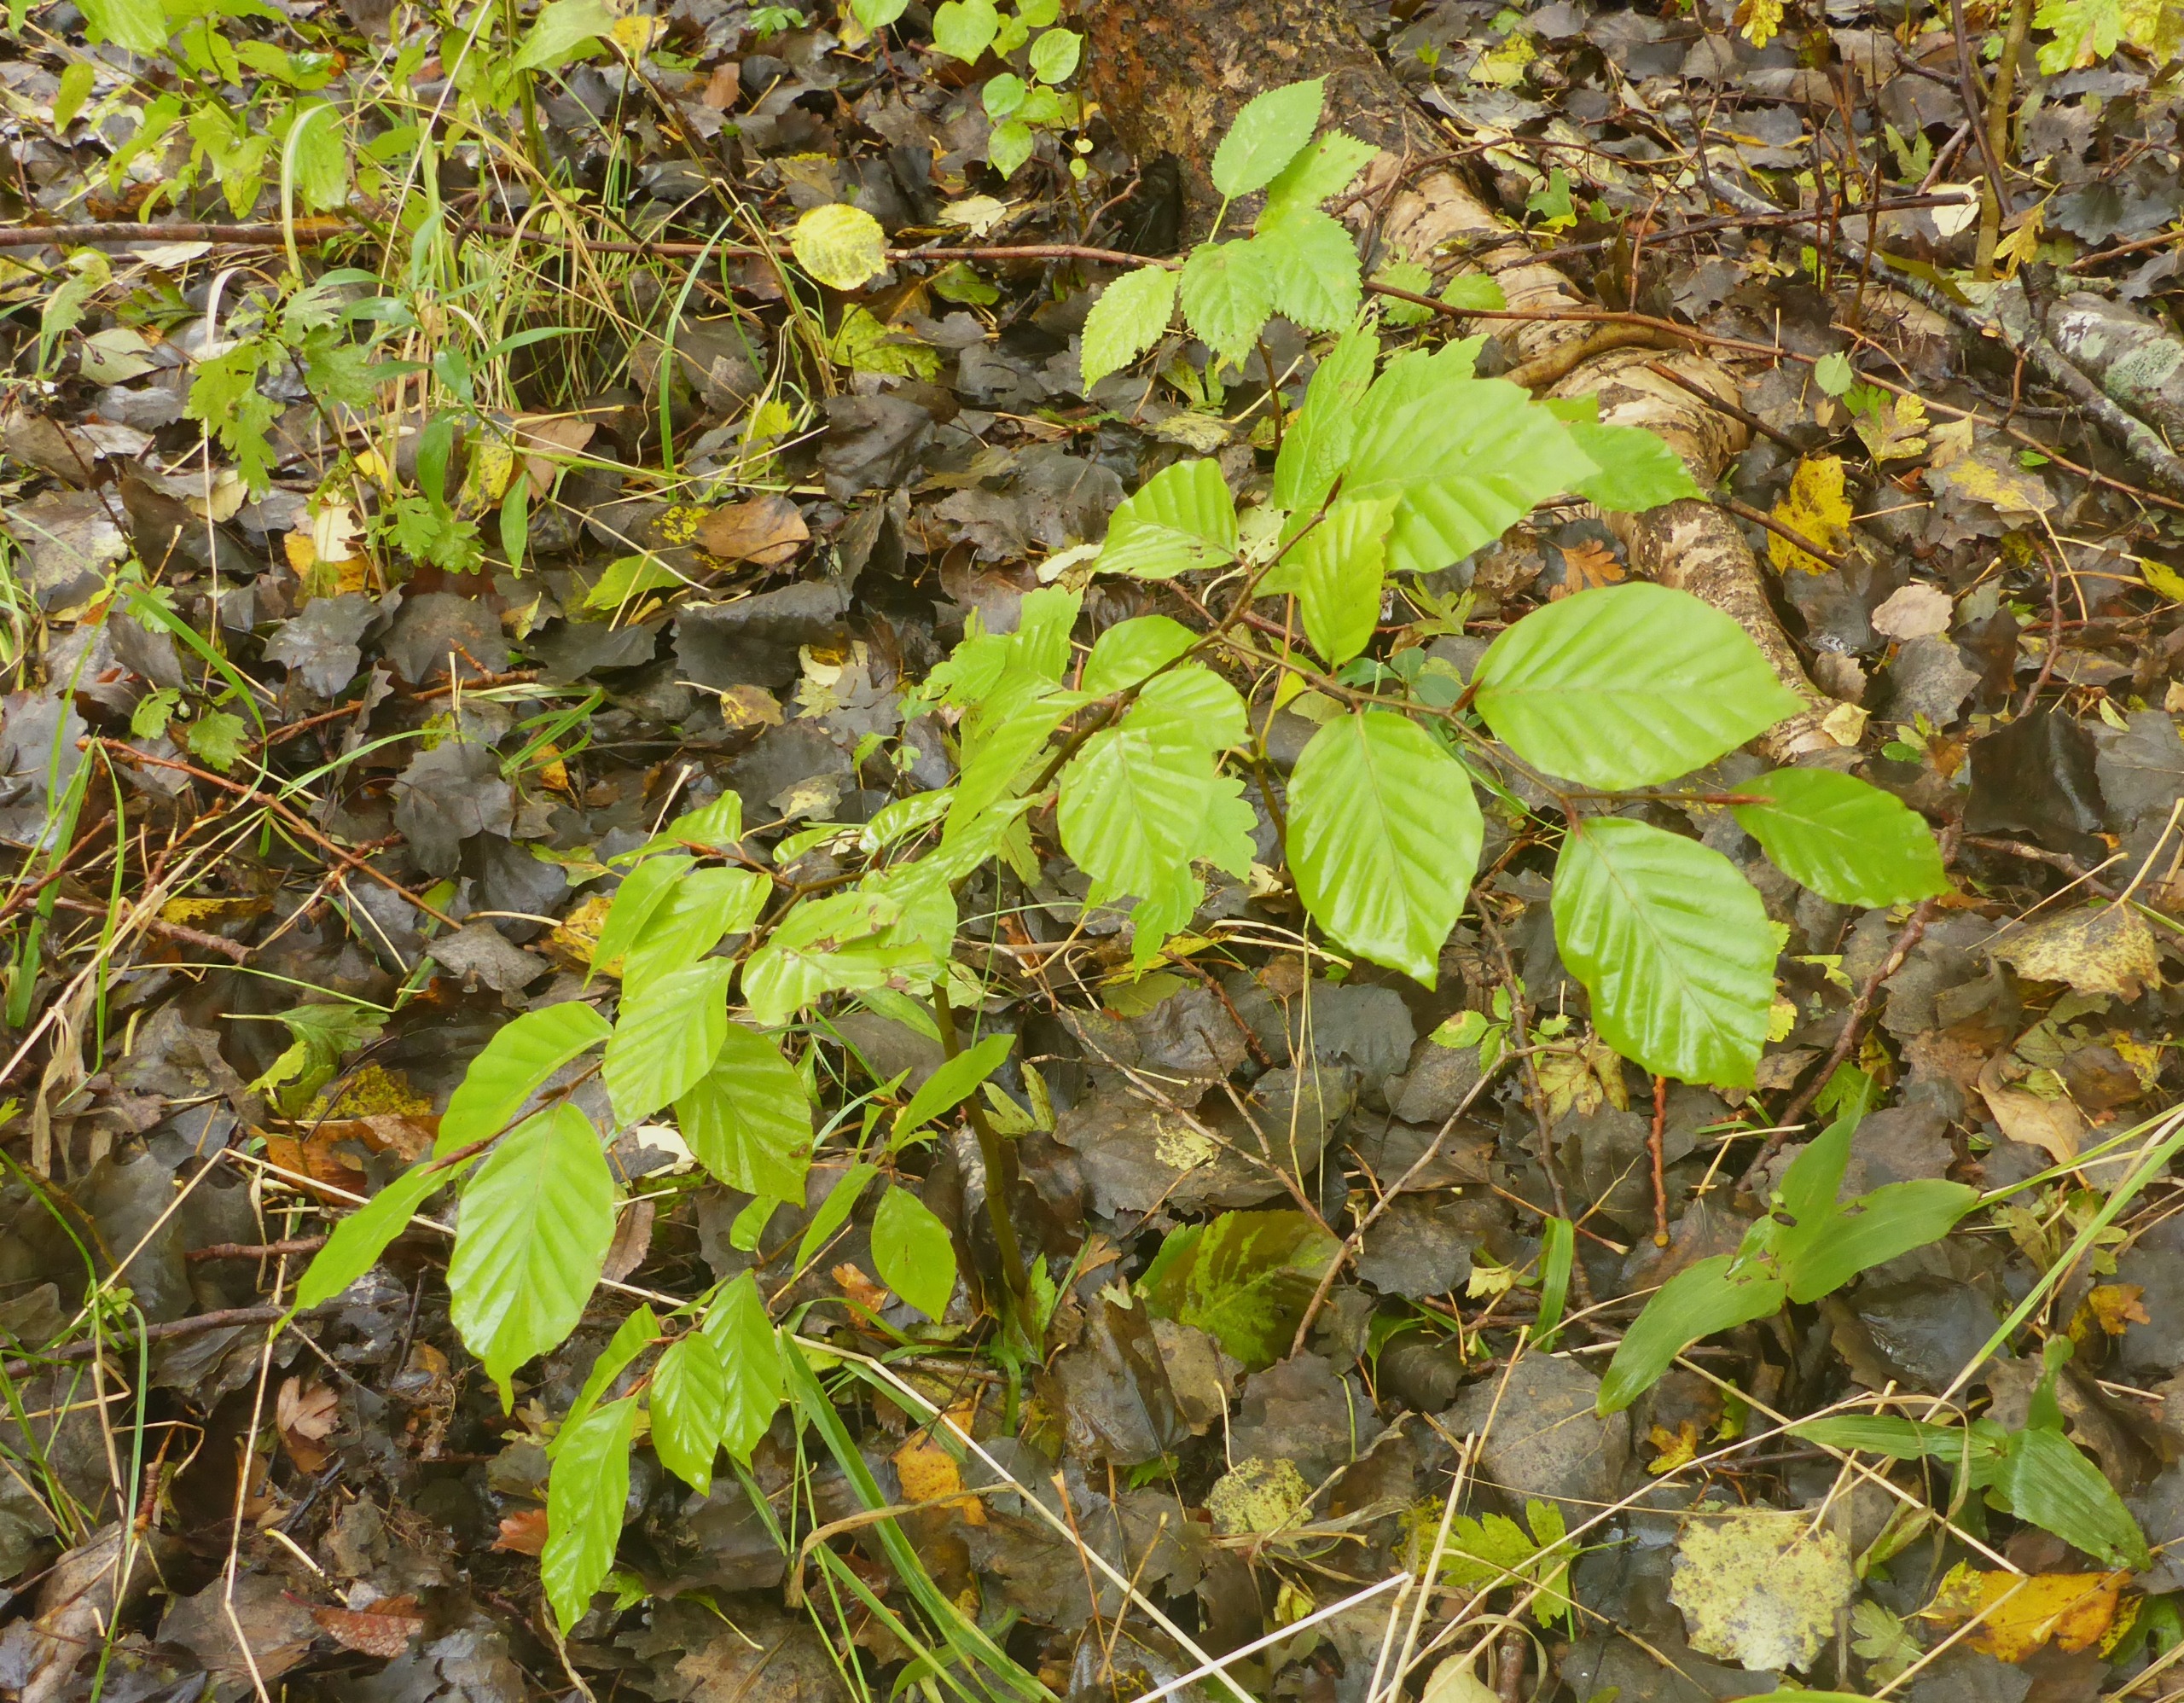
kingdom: Plantae
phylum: Tracheophyta
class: Magnoliopsida
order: Fagales
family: Fagaceae
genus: Fagus
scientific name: Fagus sylvatica
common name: Bøg
